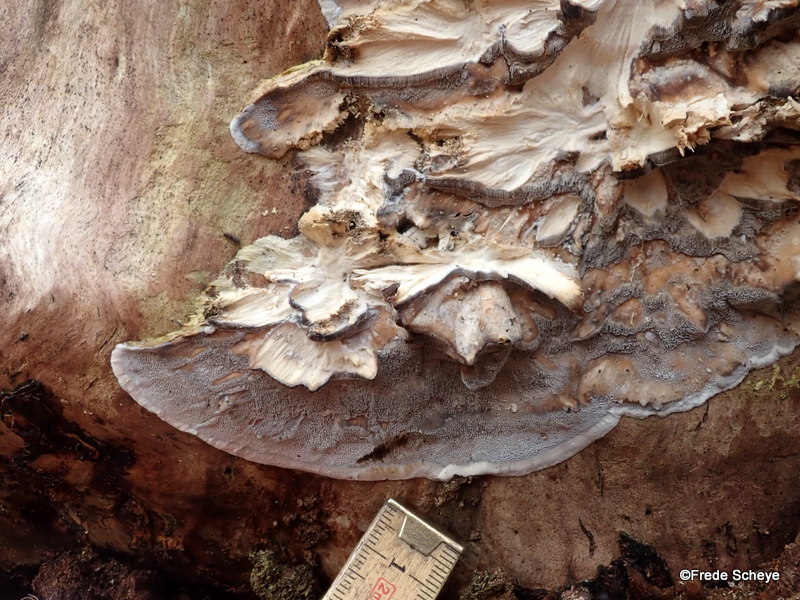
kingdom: Fungi
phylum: Basidiomycota
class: Agaricomycetes
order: Polyporales
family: Phanerochaetaceae
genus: Bjerkandera
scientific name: Bjerkandera adusta
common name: sveden sodporesvamp
